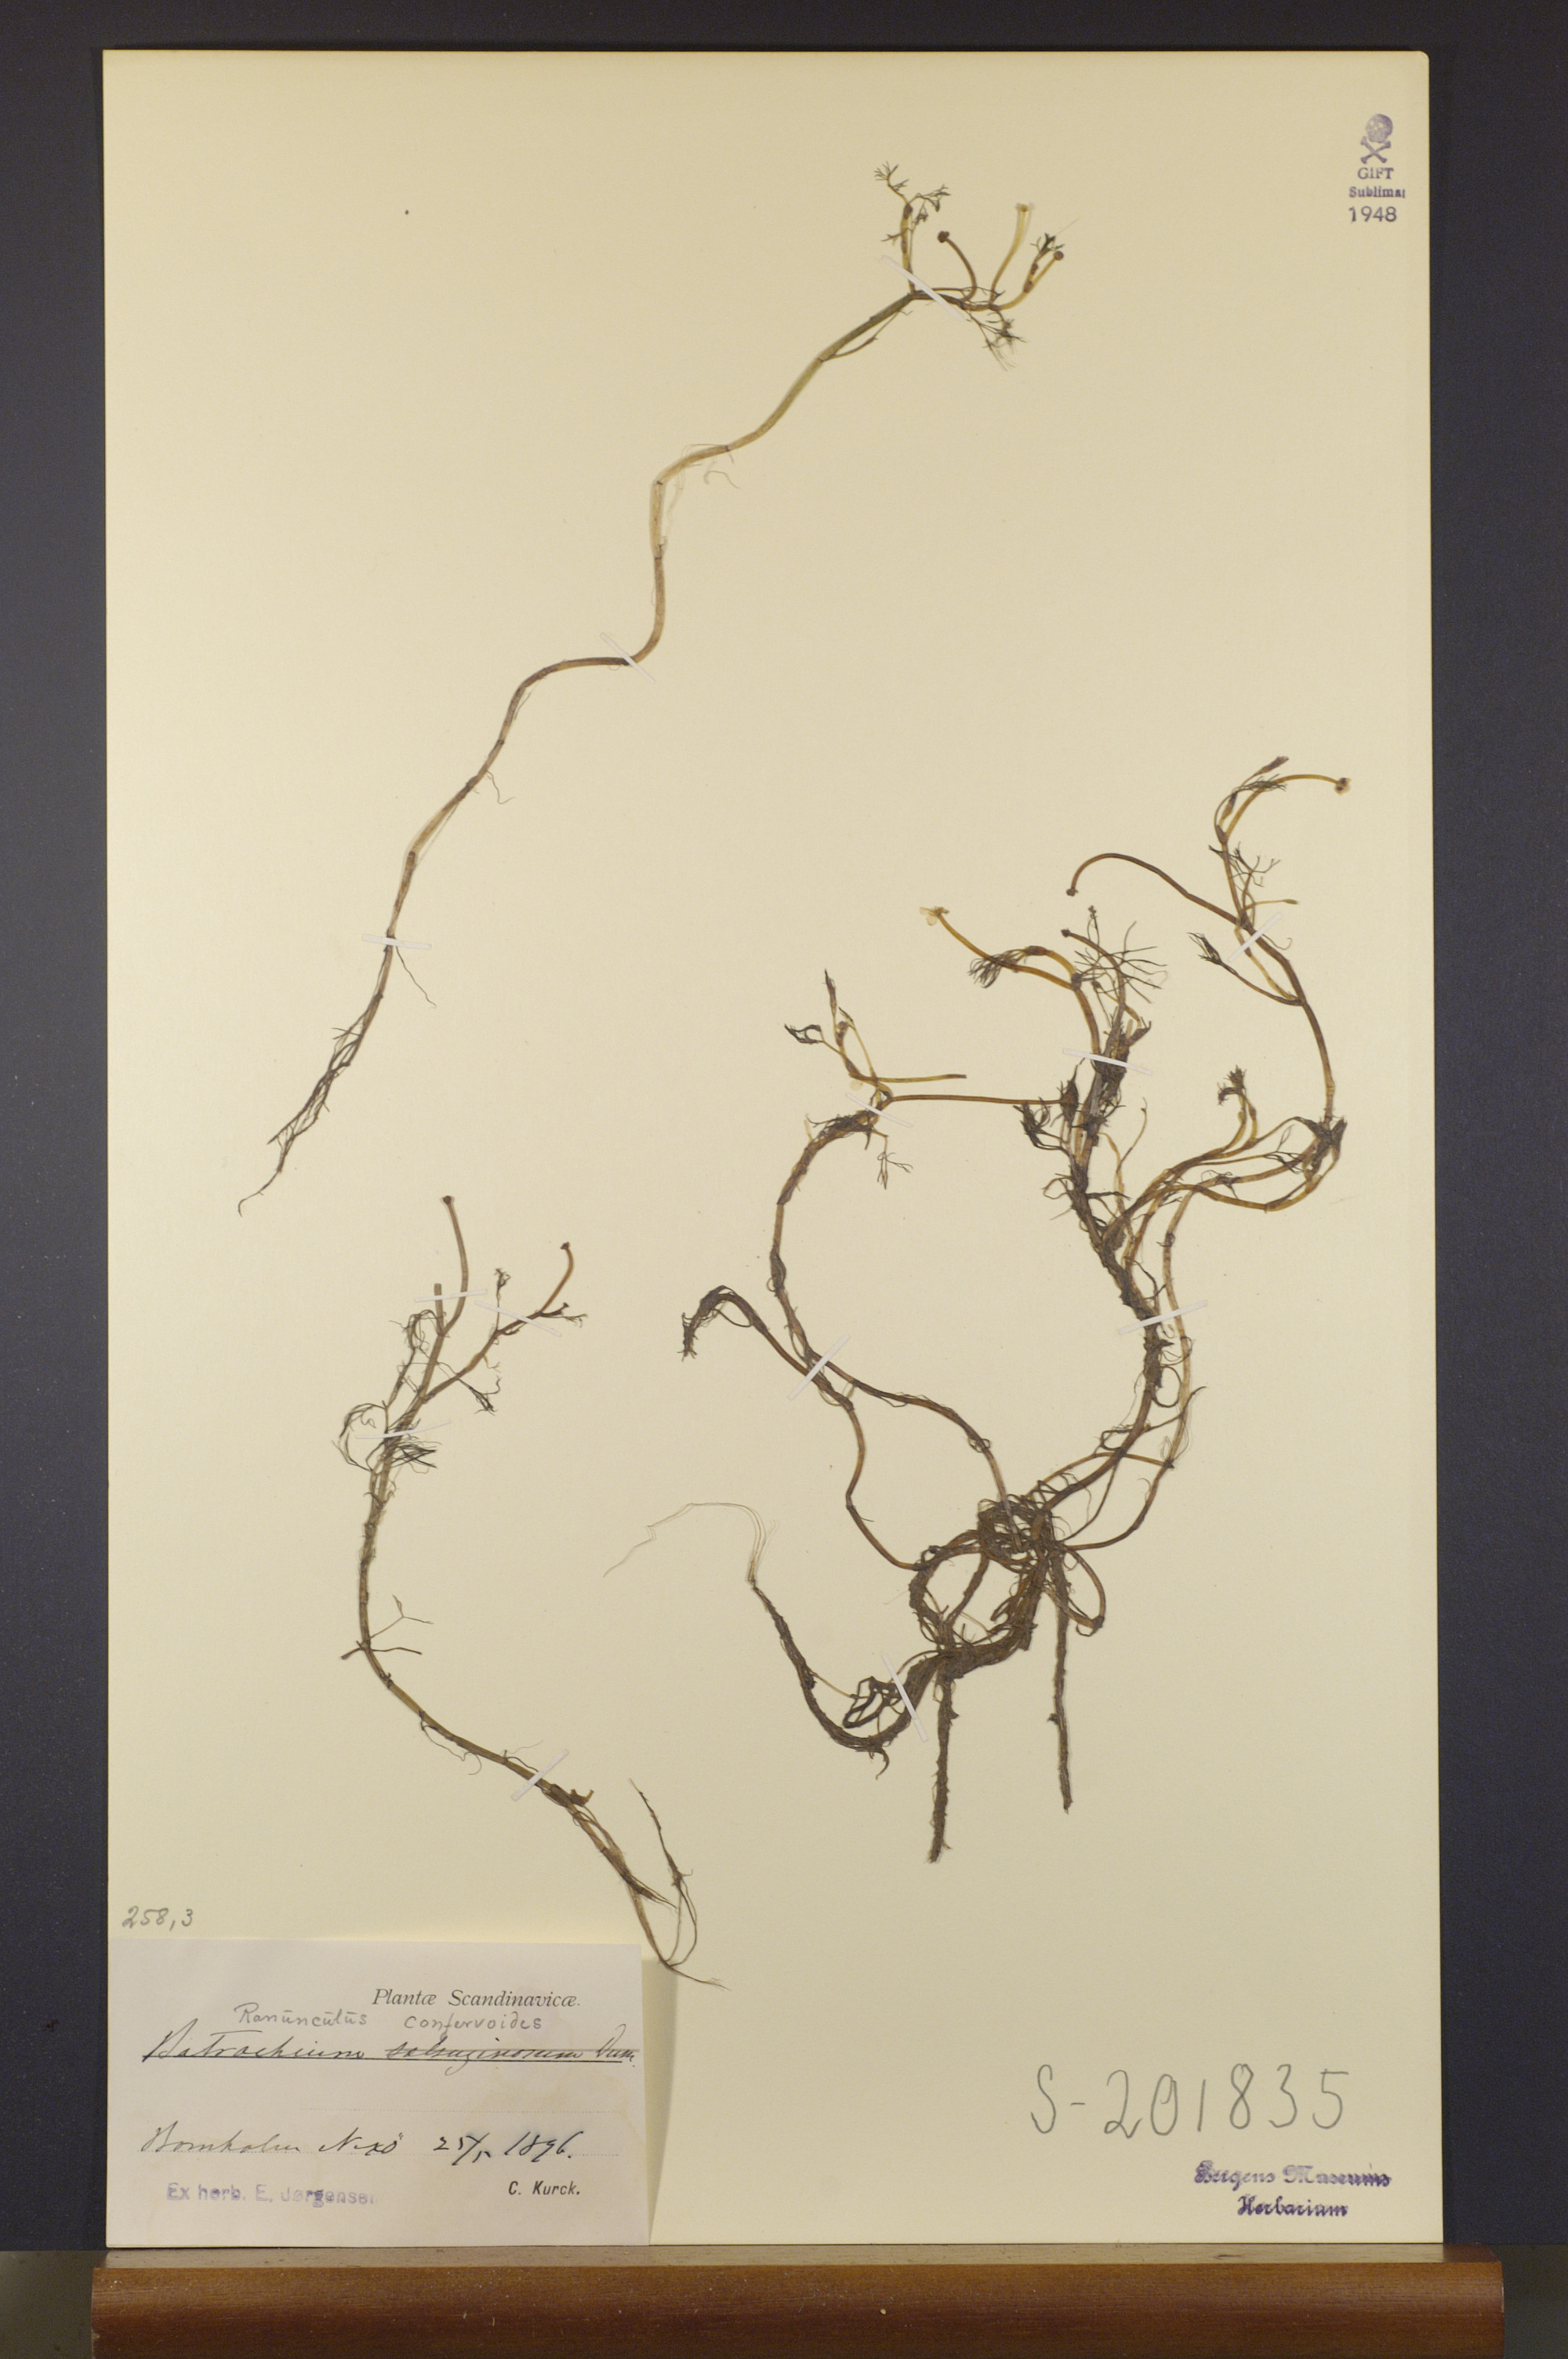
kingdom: Plantae
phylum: Tracheophyta
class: Magnoliopsida
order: Ranunculales
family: Ranunculaceae
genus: Ranunculus
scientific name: Ranunculus confervoides
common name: Delicate buttercup
